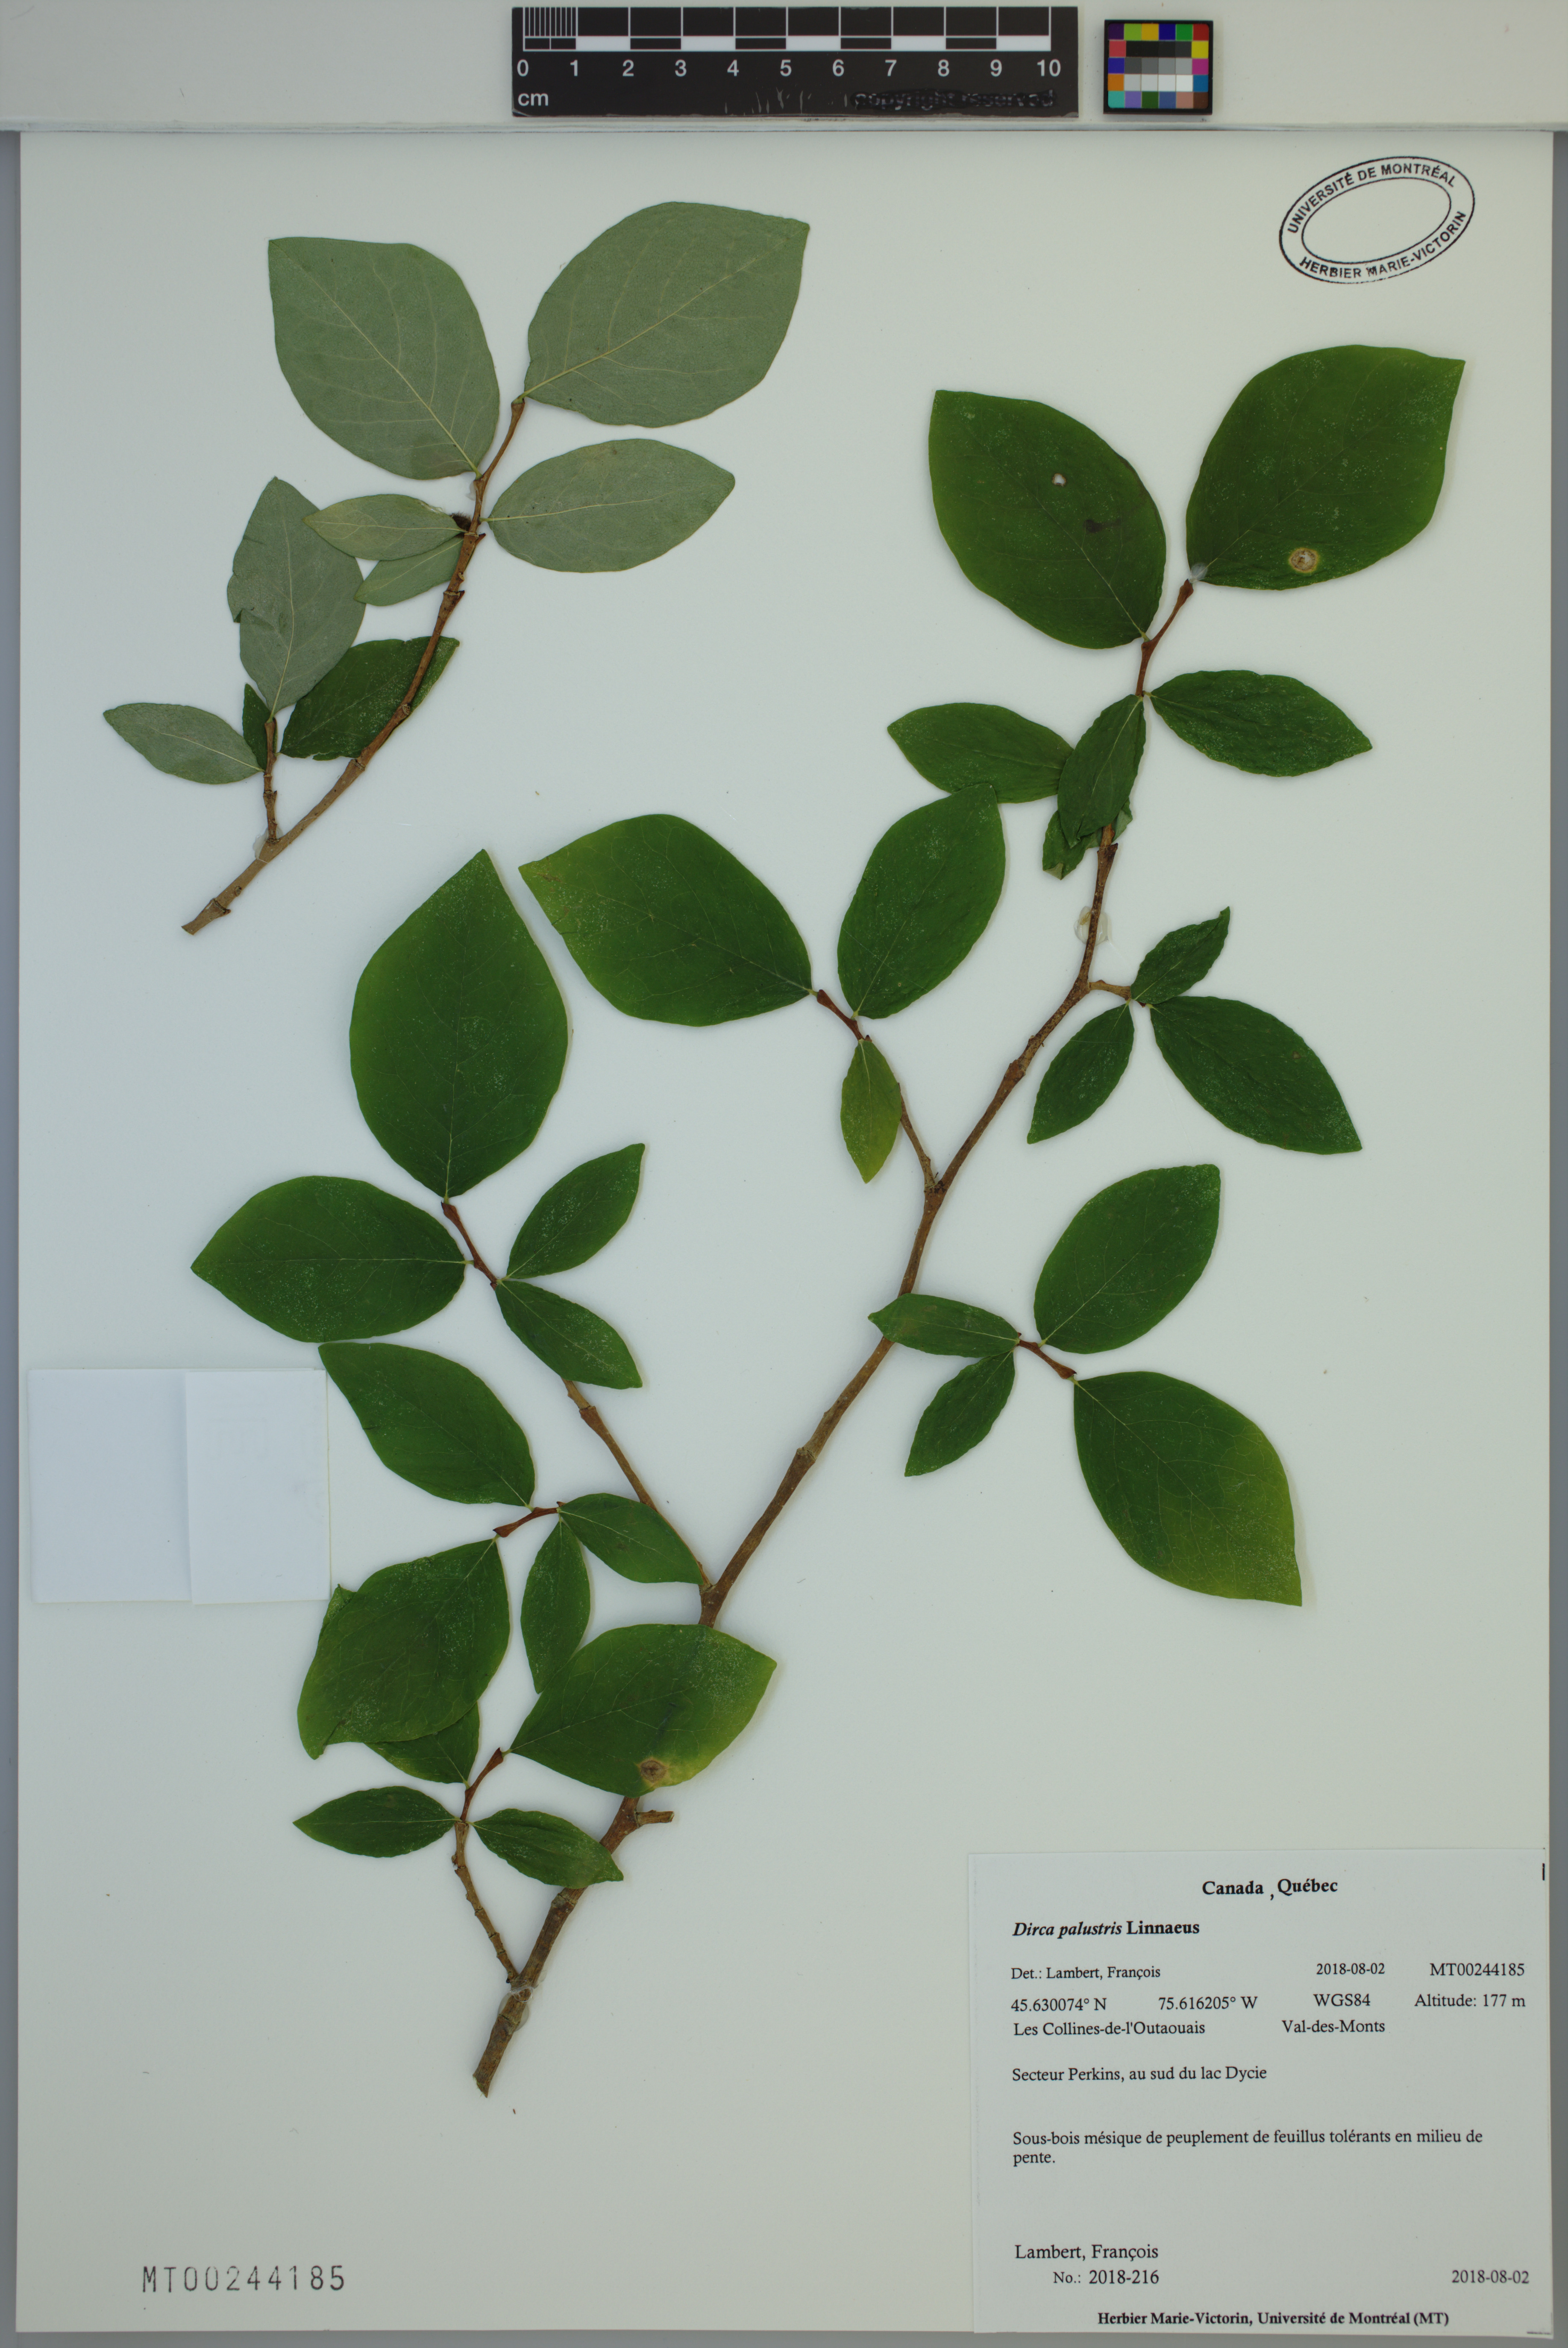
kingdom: Plantae
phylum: Tracheophyta
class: Magnoliopsida
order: Malvales
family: Thymelaeaceae
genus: Dirca
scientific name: Dirca palustris
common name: Leatherwood
